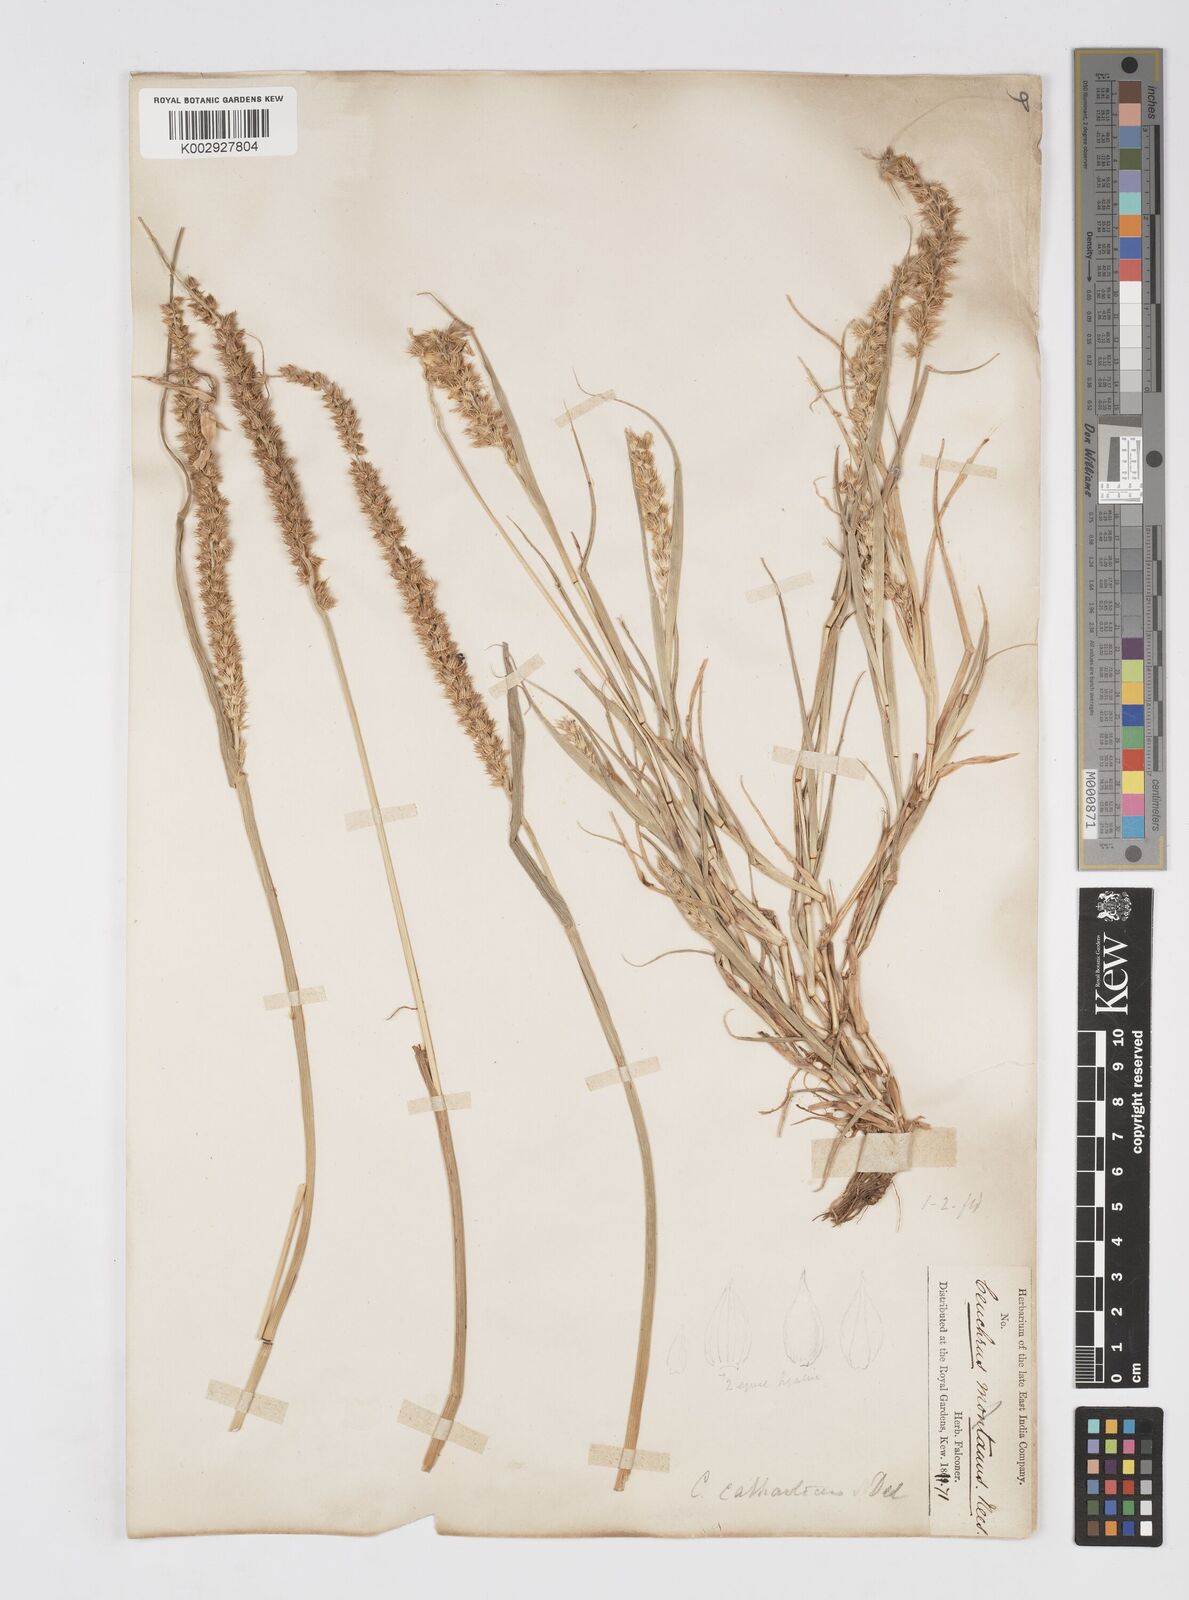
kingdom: Plantae
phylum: Tracheophyta
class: Liliopsida
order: Poales
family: Poaceae
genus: Cenchrus
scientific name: Cenchrus biflorus
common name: Indian sandbur
